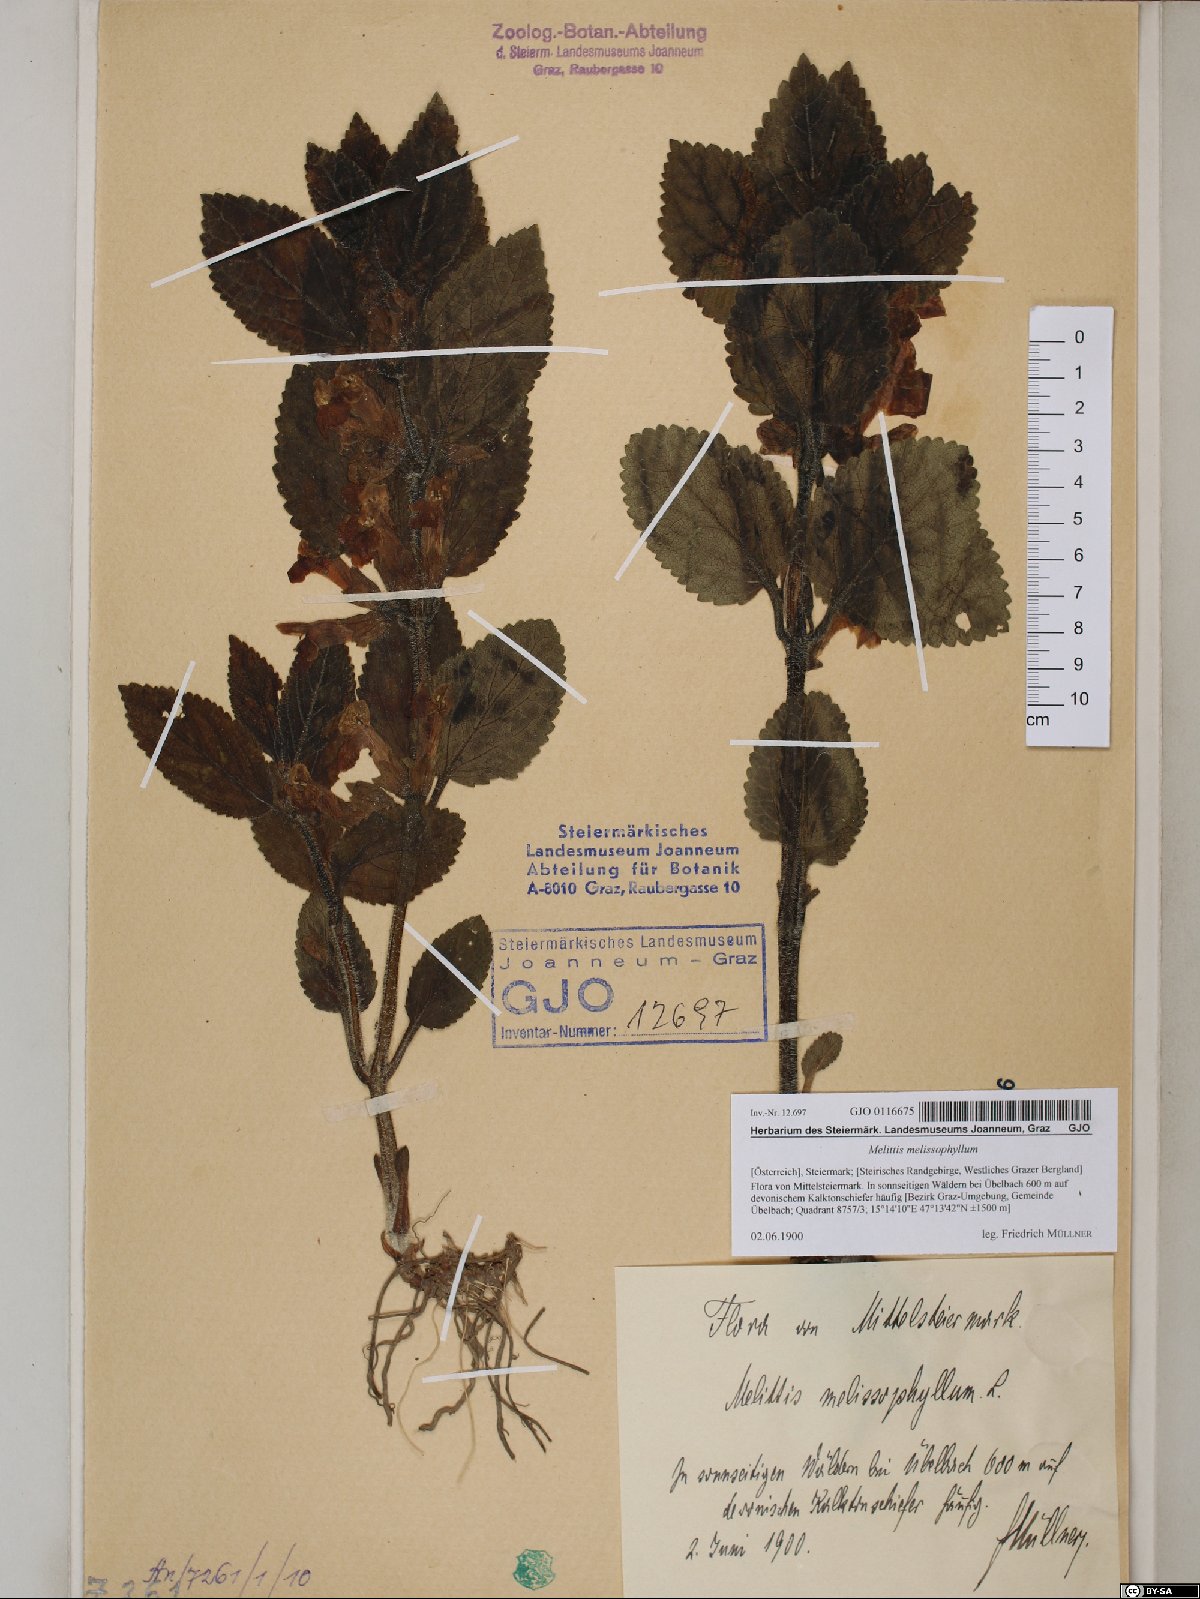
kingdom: Plantae
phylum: Tracheophyta
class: Magnoliopsida
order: Lamiales
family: Lamiaceae
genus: Melittis
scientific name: Melittis melissophyllum
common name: Bastard balm
